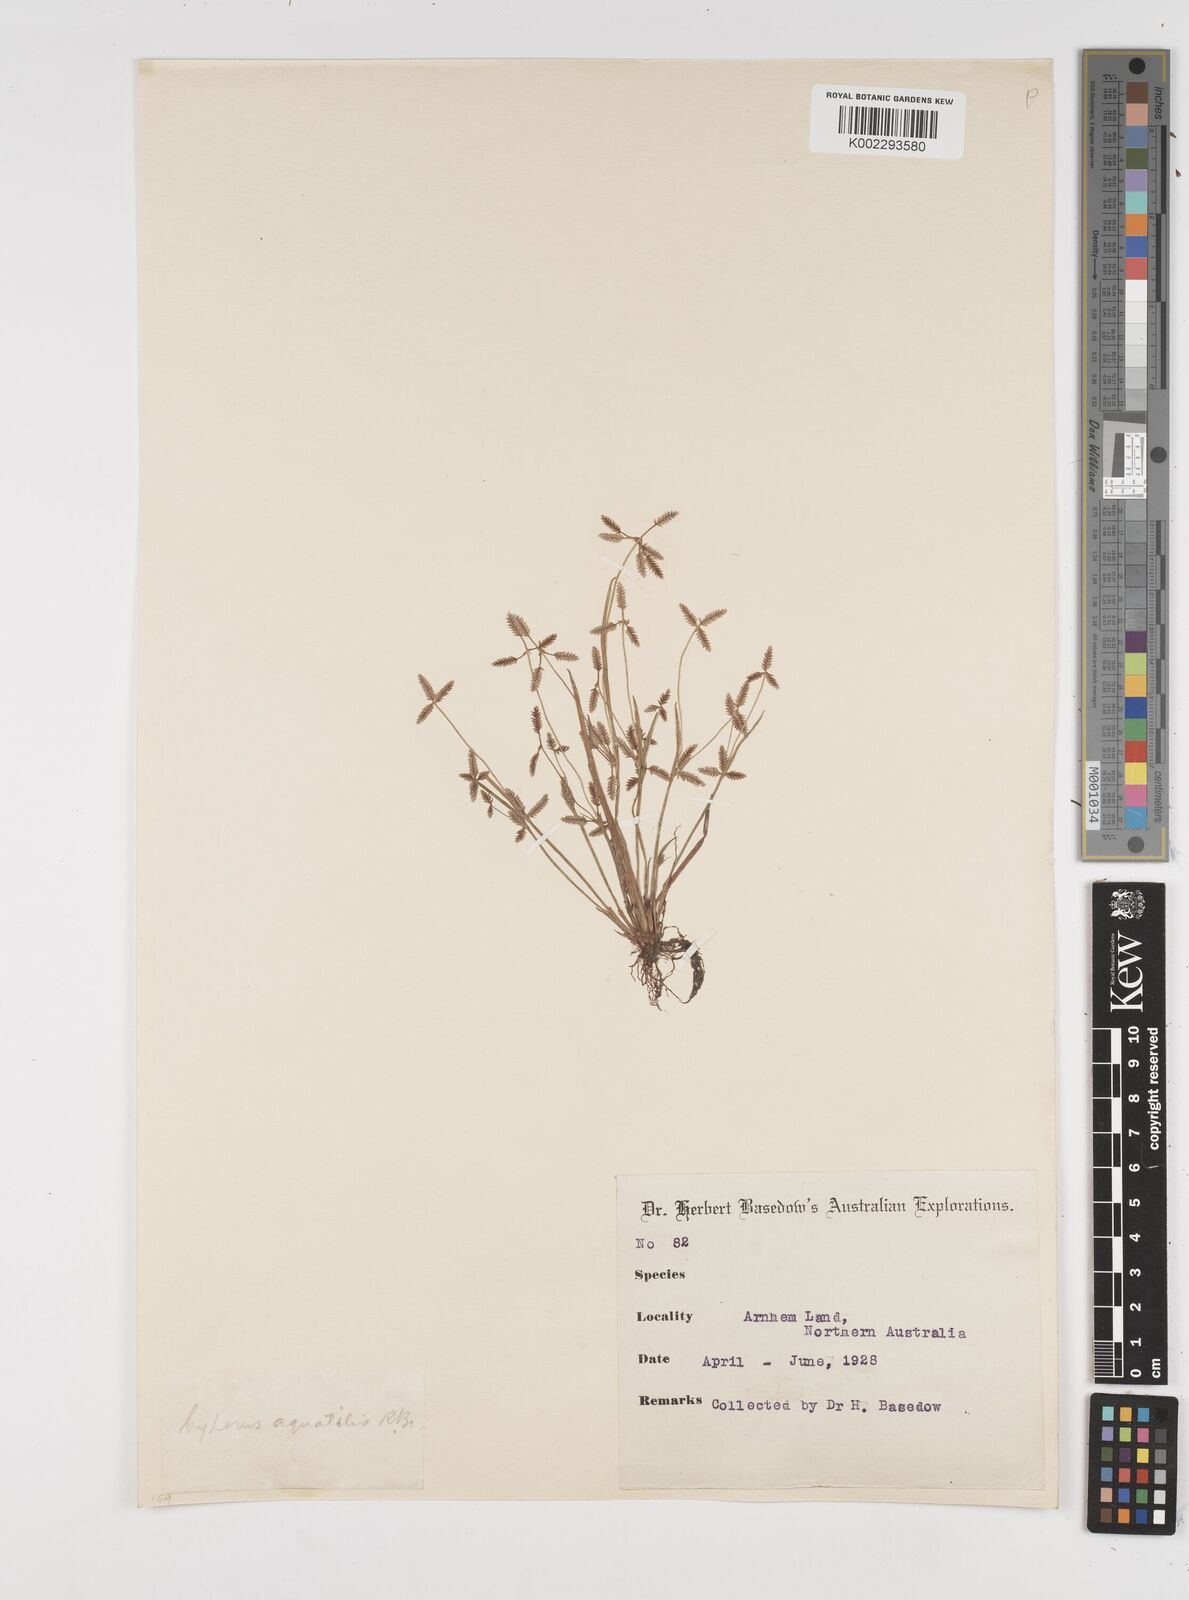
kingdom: Plantae
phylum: Tracheophyta
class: Liliopsida
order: Poales
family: Cyperaceae
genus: Cyperus
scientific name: Cyperus aquatilis
